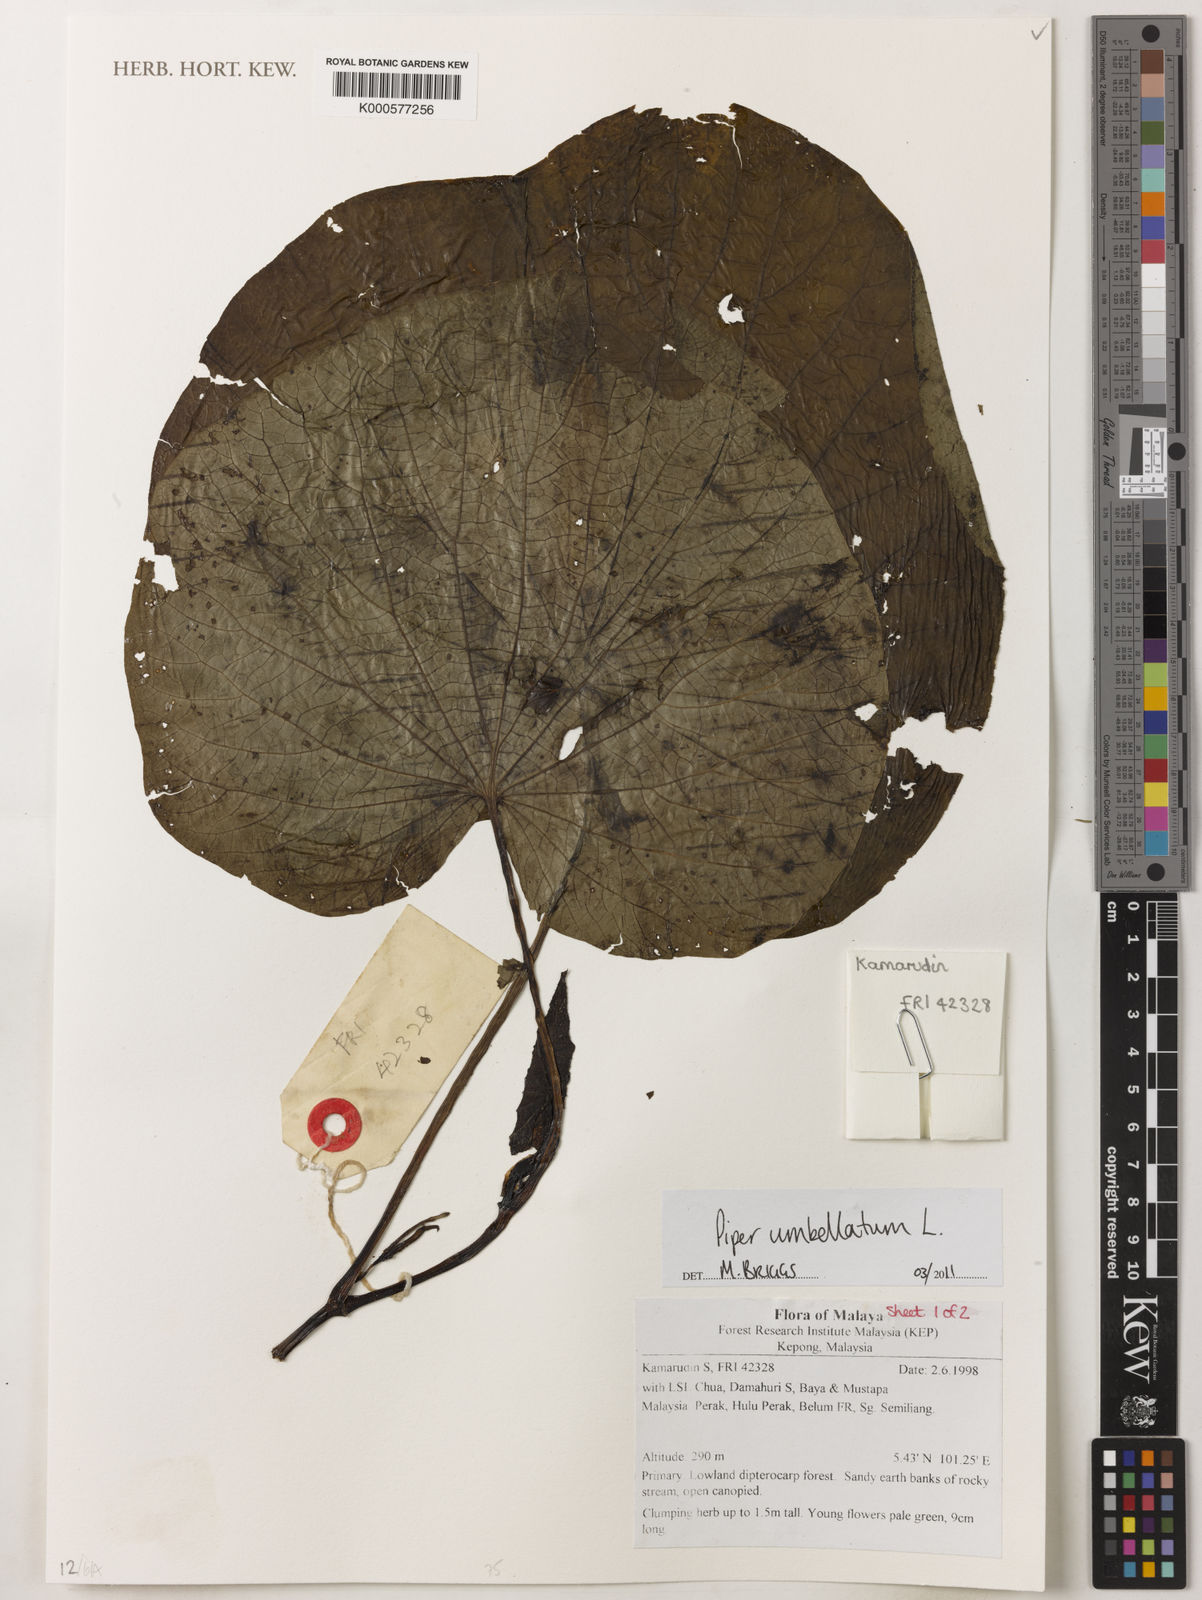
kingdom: Plantae
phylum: Tracheophyta
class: Magnoliopsida
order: Piperales
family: Piperaceae
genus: Piper
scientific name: Piper umbellatum
